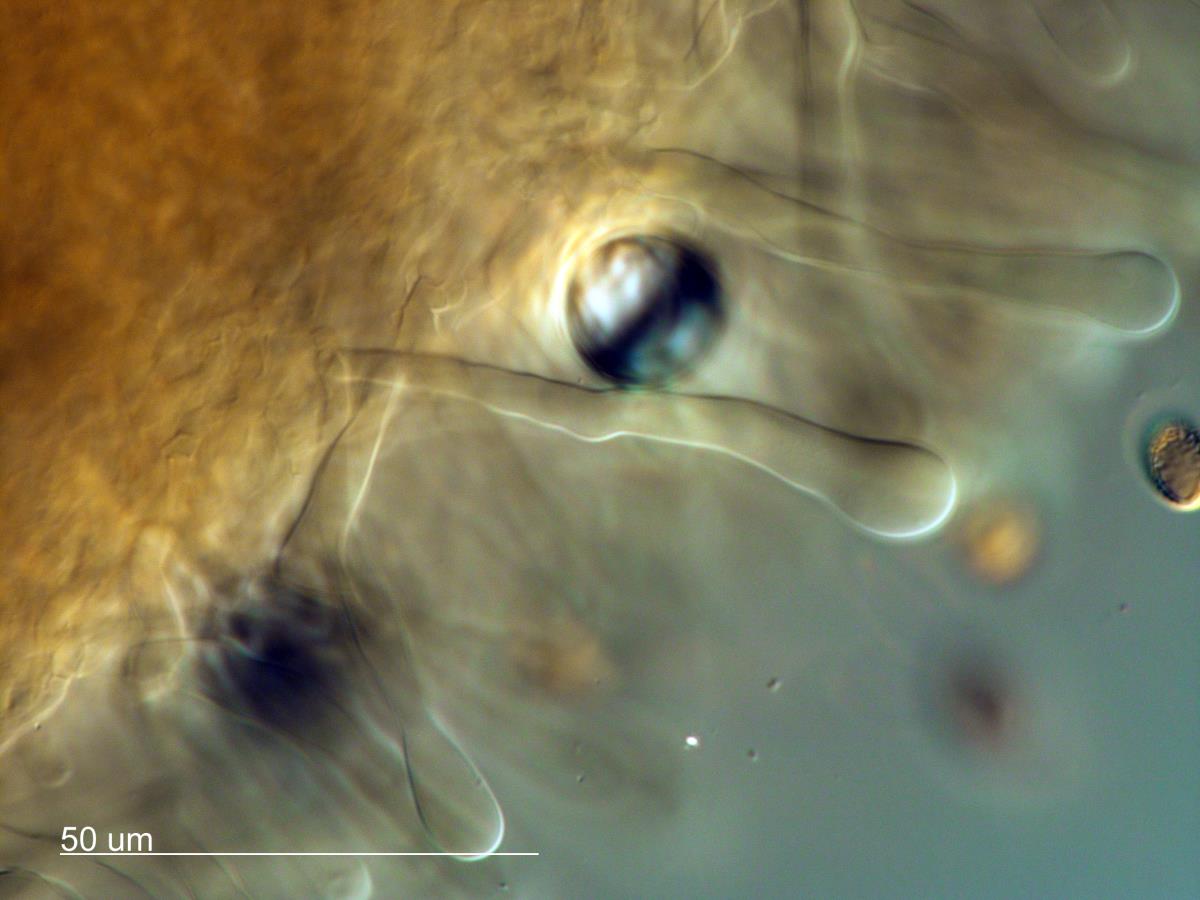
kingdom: Fungi
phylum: Basidiomycota
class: Agaricomycetes
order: Agaricales
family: Hymenogastraceae
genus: Hebeloma
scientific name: Hebeloma leucosarx
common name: Birch poisonpie
